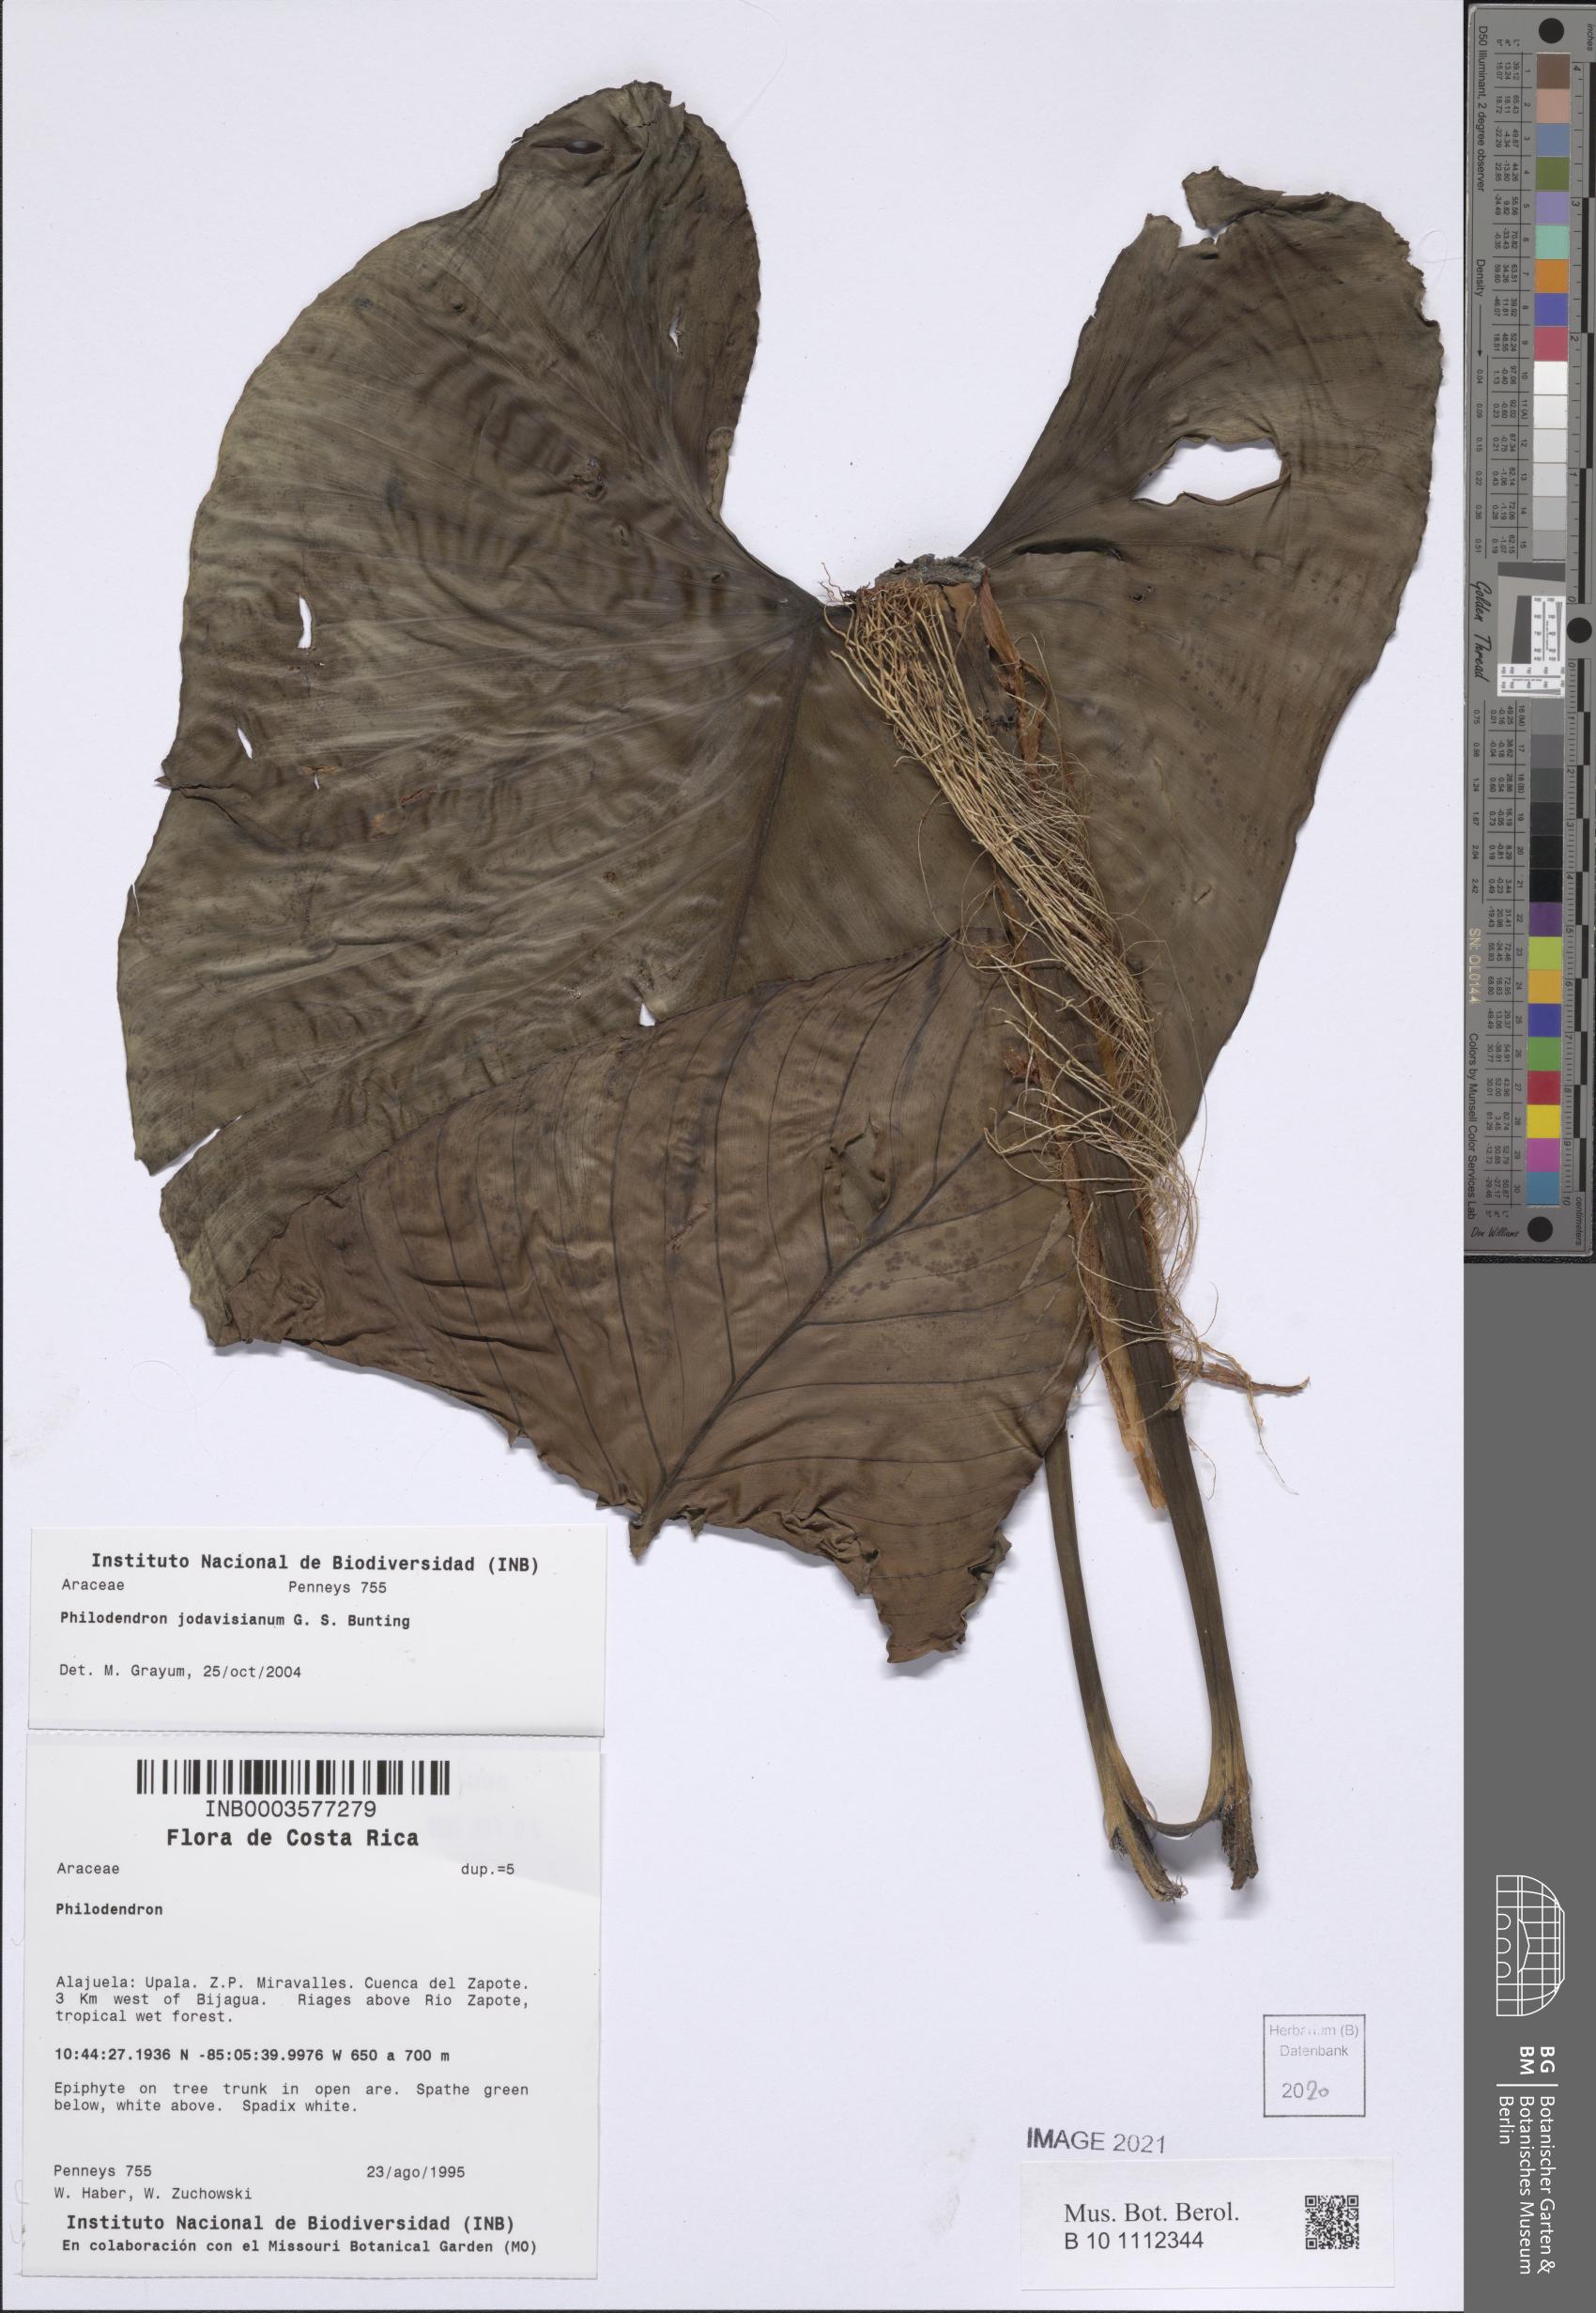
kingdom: Plantae
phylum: Tracheophyta
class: Liliopsida
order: Alismatales
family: Araceae
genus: Philodendron
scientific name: Philodendron jodavisianum
